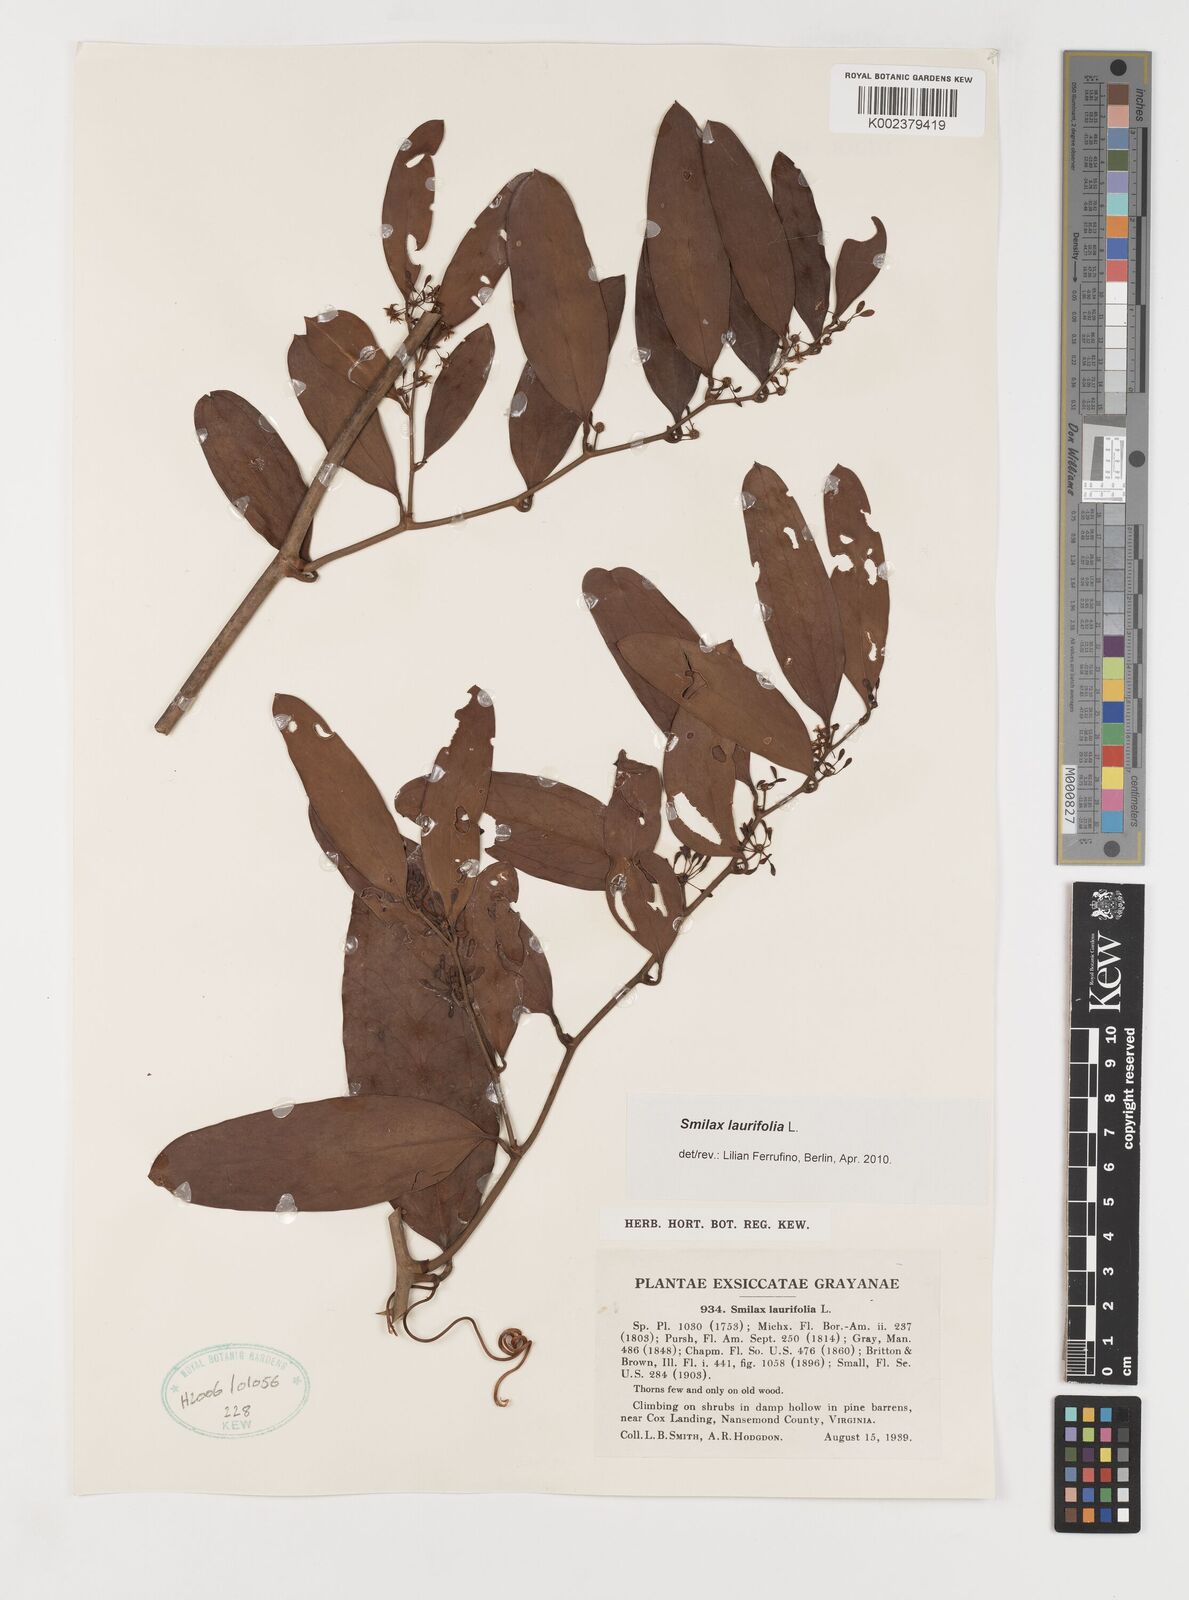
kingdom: Plantae
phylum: Tracheophyta
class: Liliopsida
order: Liliales
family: Smilacaceae
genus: Smilax
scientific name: Smilax laurifolia
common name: Bamboovine
